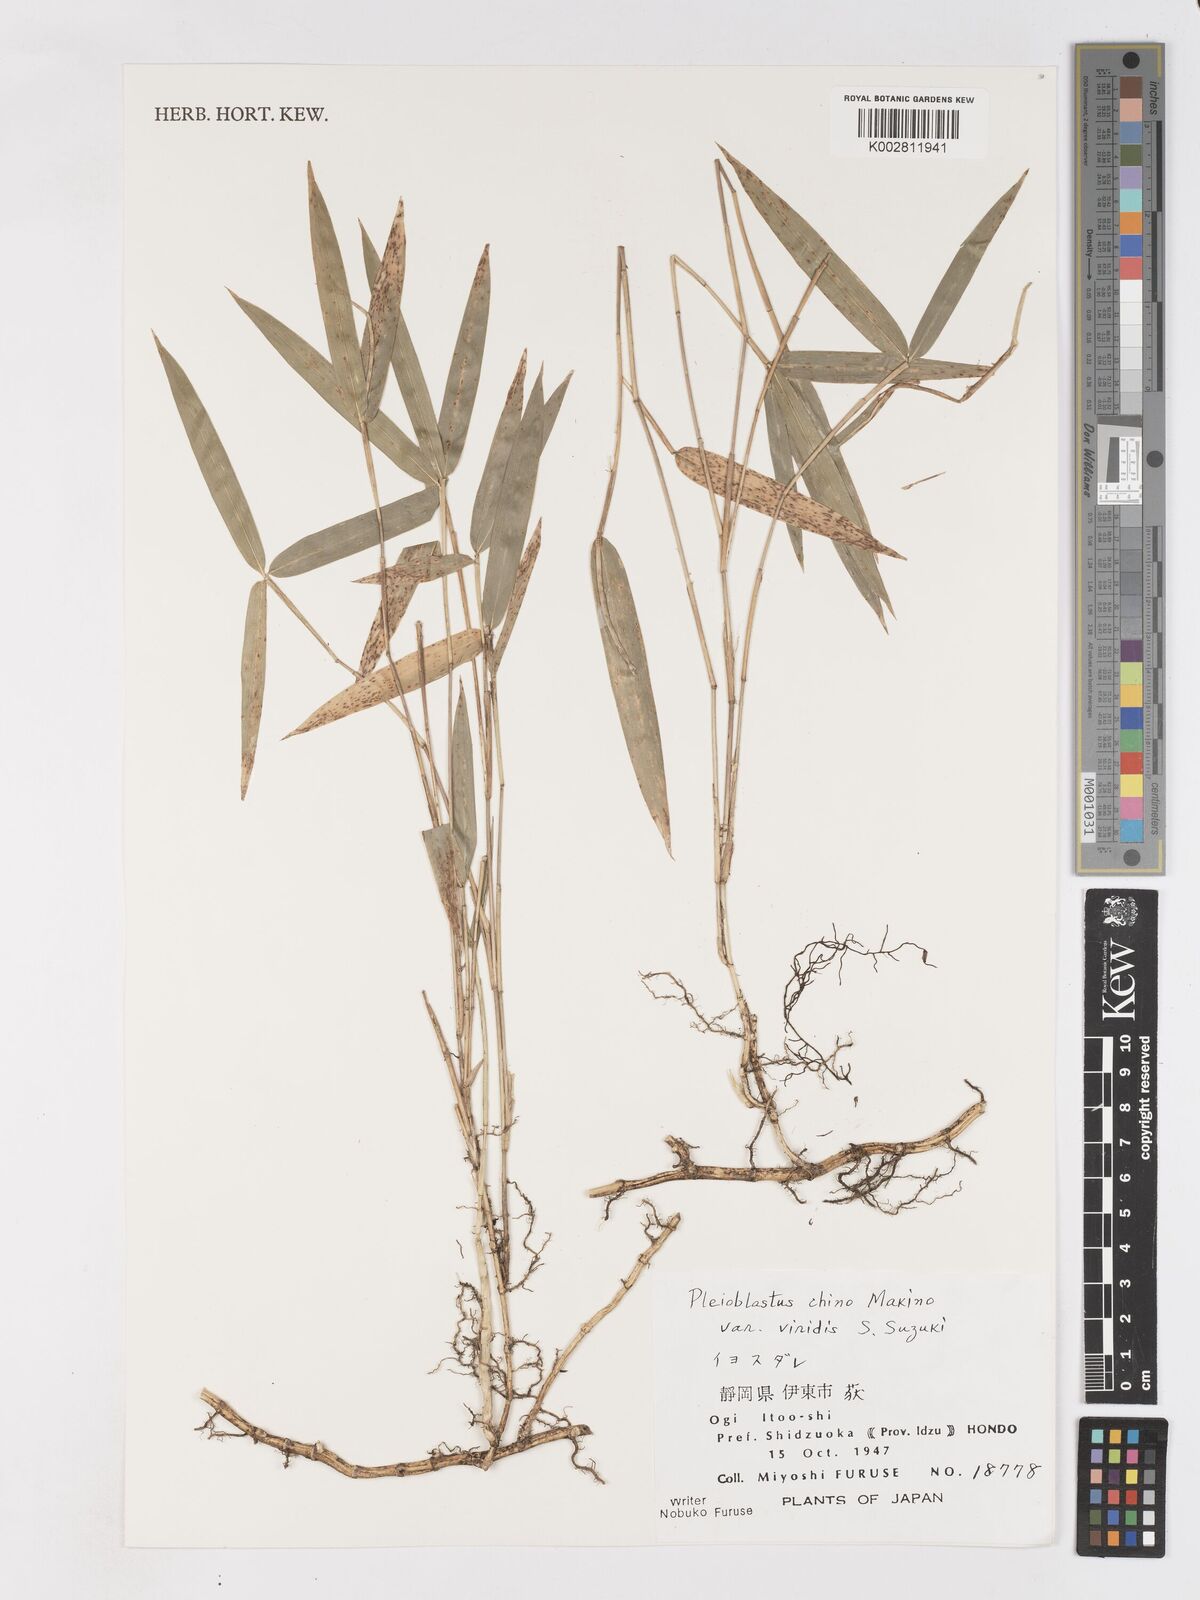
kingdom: Plantae
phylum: Tracheophyta
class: Liliopsida
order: Poales
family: Poaceae
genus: Pleioblastus
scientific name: Pleioblastus argenteostriatus
